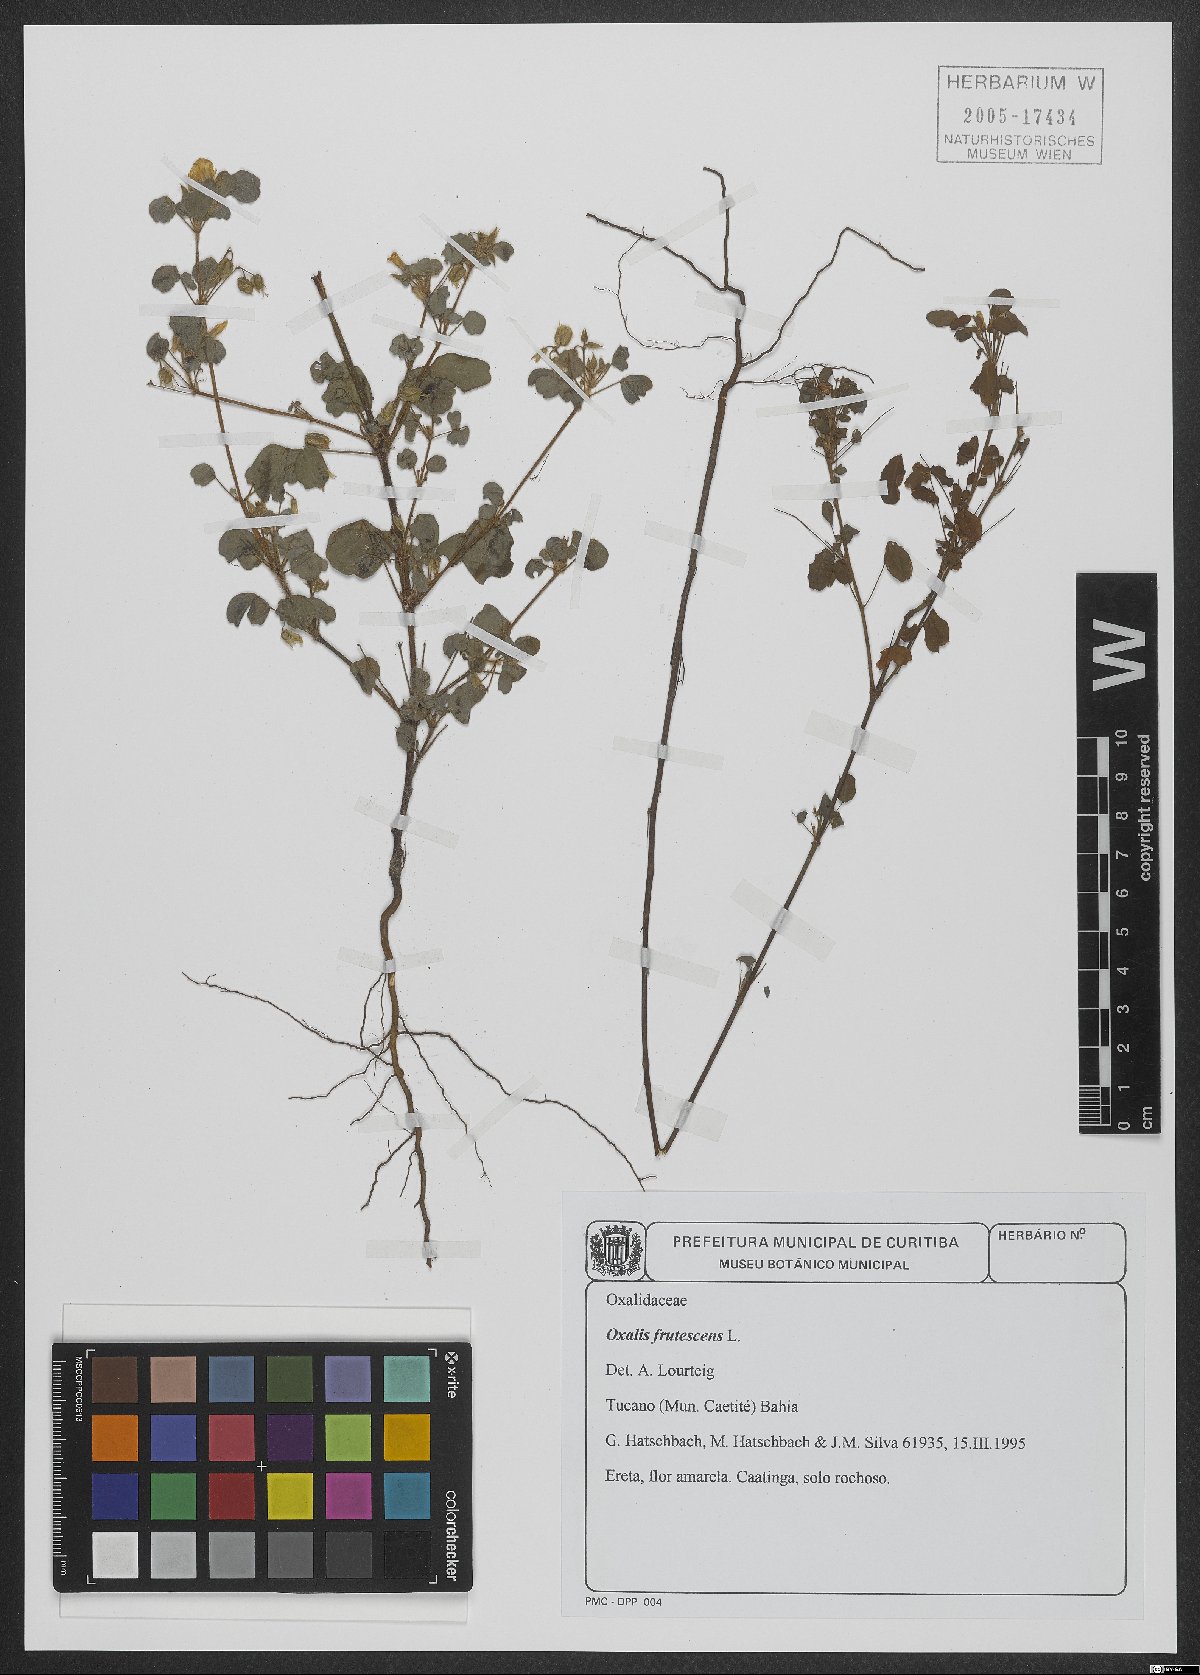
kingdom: Plantae
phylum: Tracheophyta
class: Magnoliopsida
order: Oxalidales
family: Oxalidaceae
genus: Oxalis
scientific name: Oxalis frutescens
